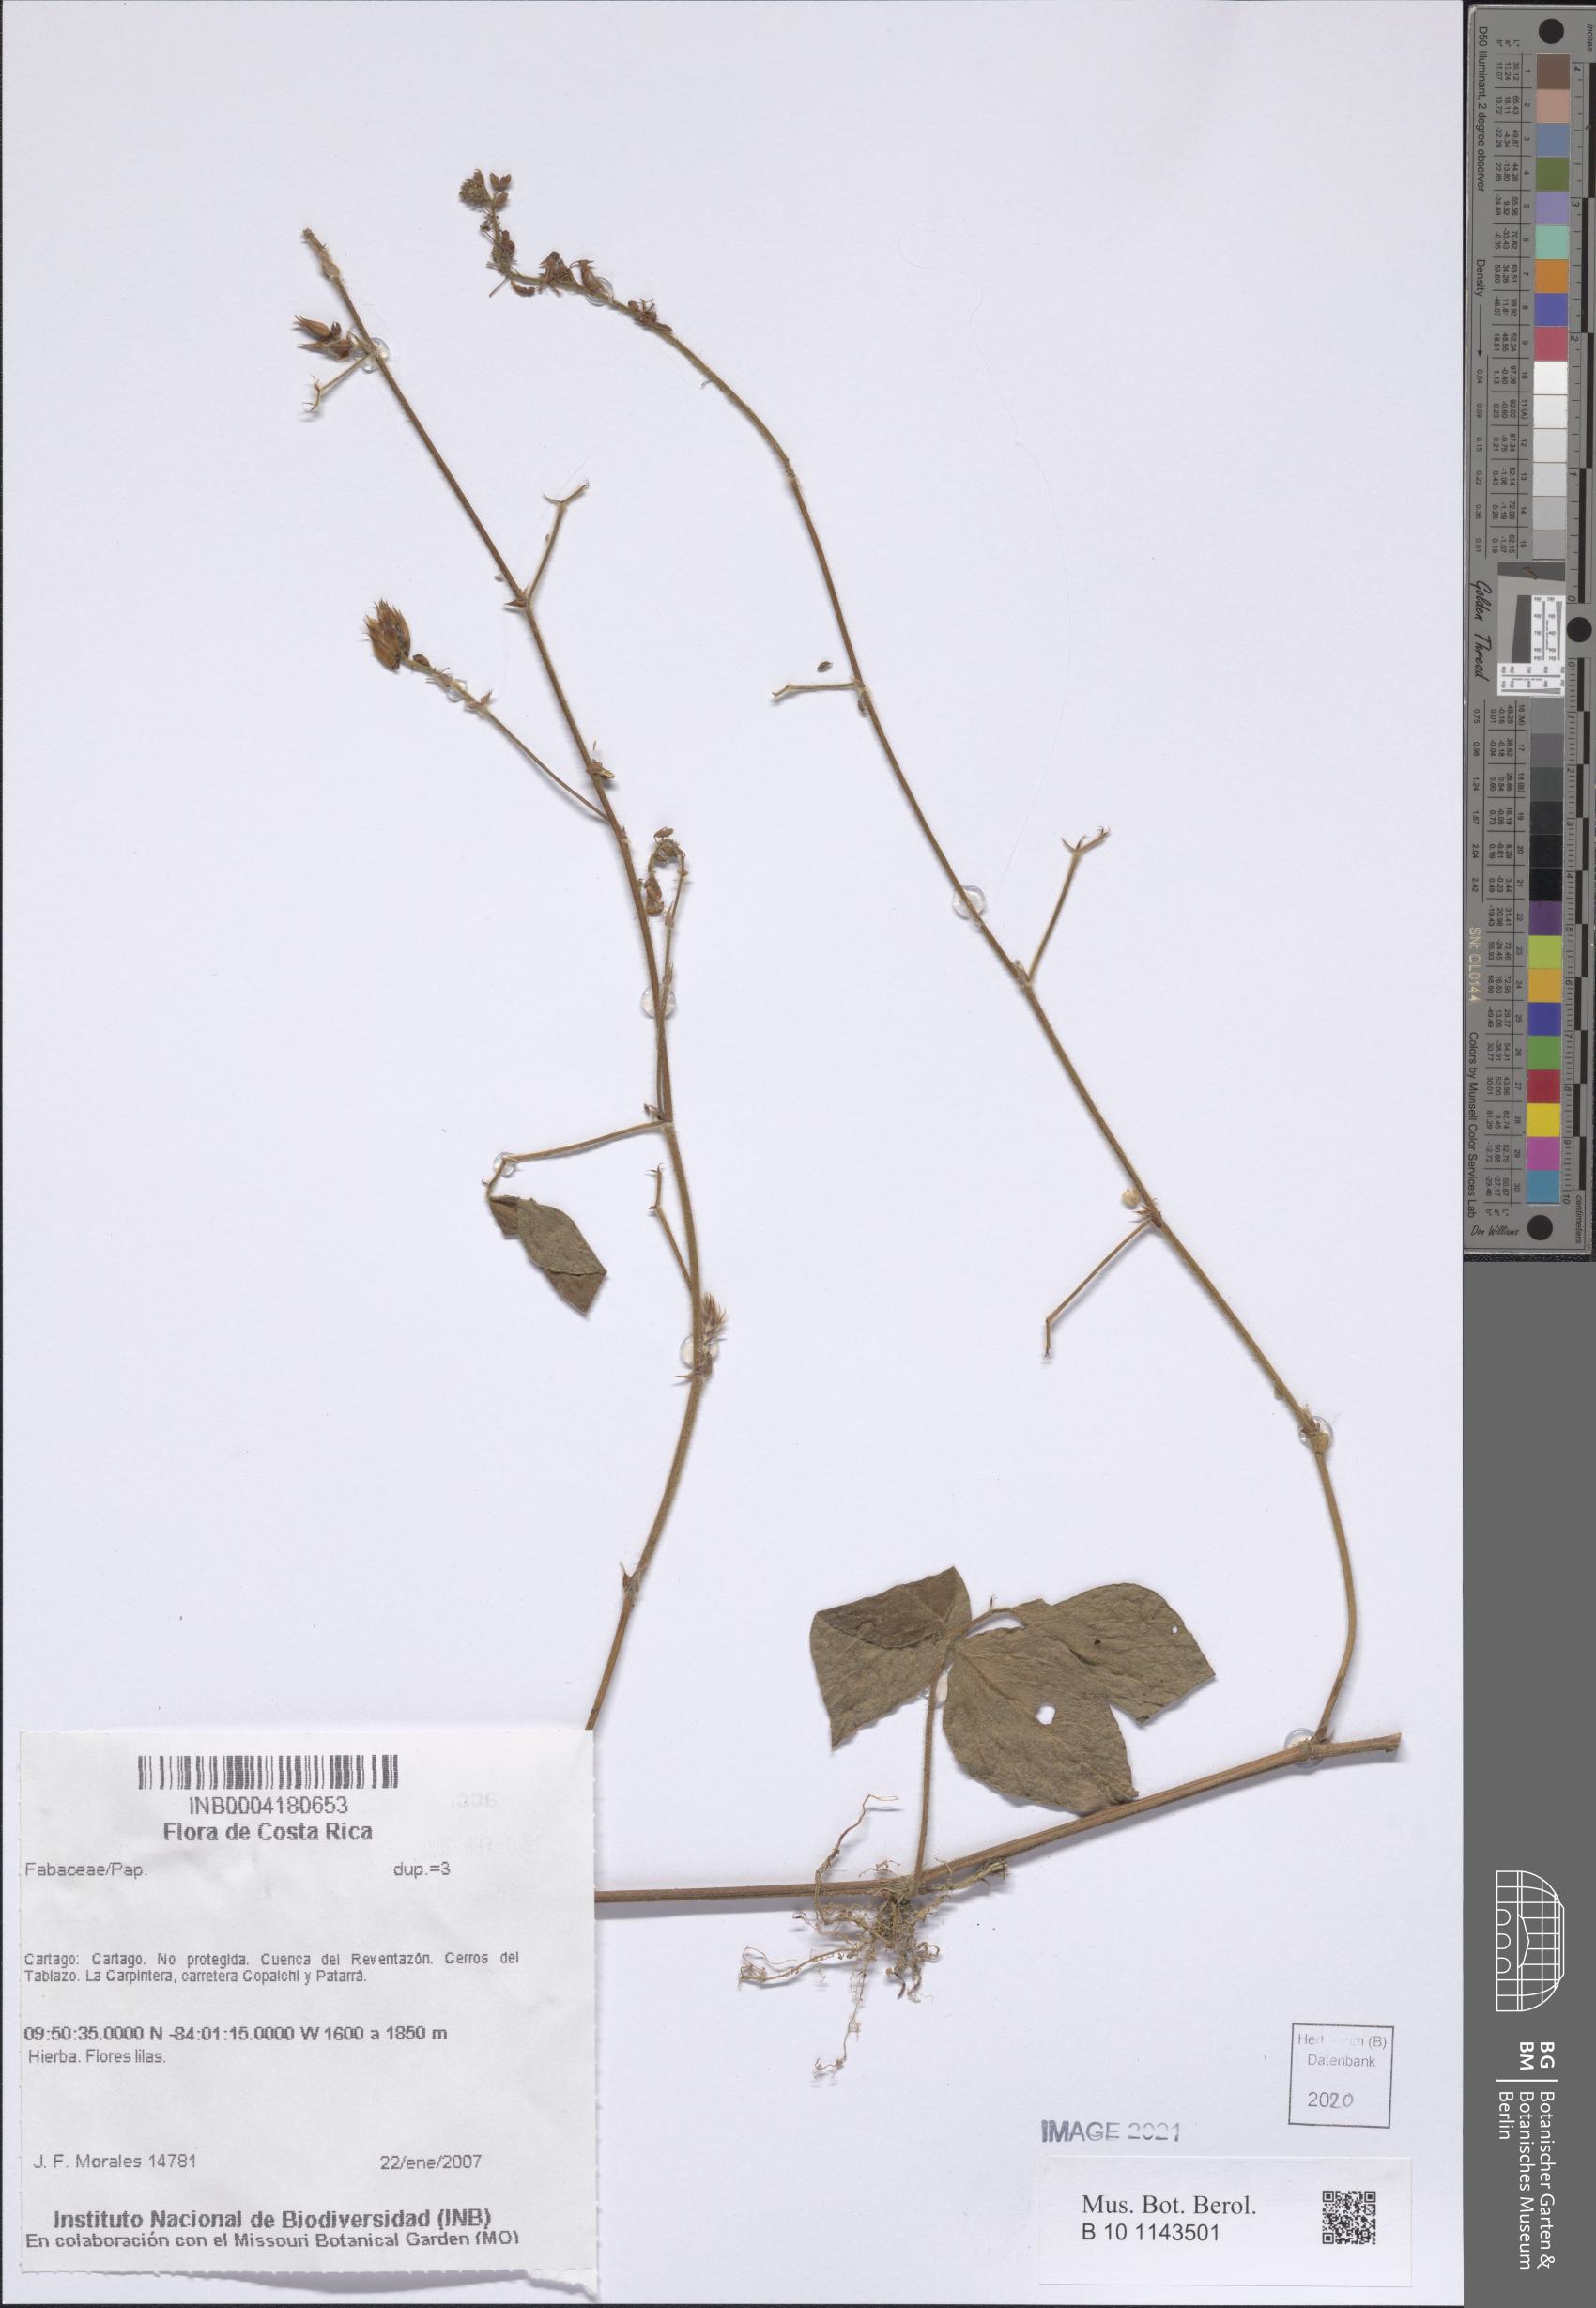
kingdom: Plantae
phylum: Tracheophyta
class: Magnoliopsida
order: Fabales
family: Fabaceae
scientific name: Fabaceae
